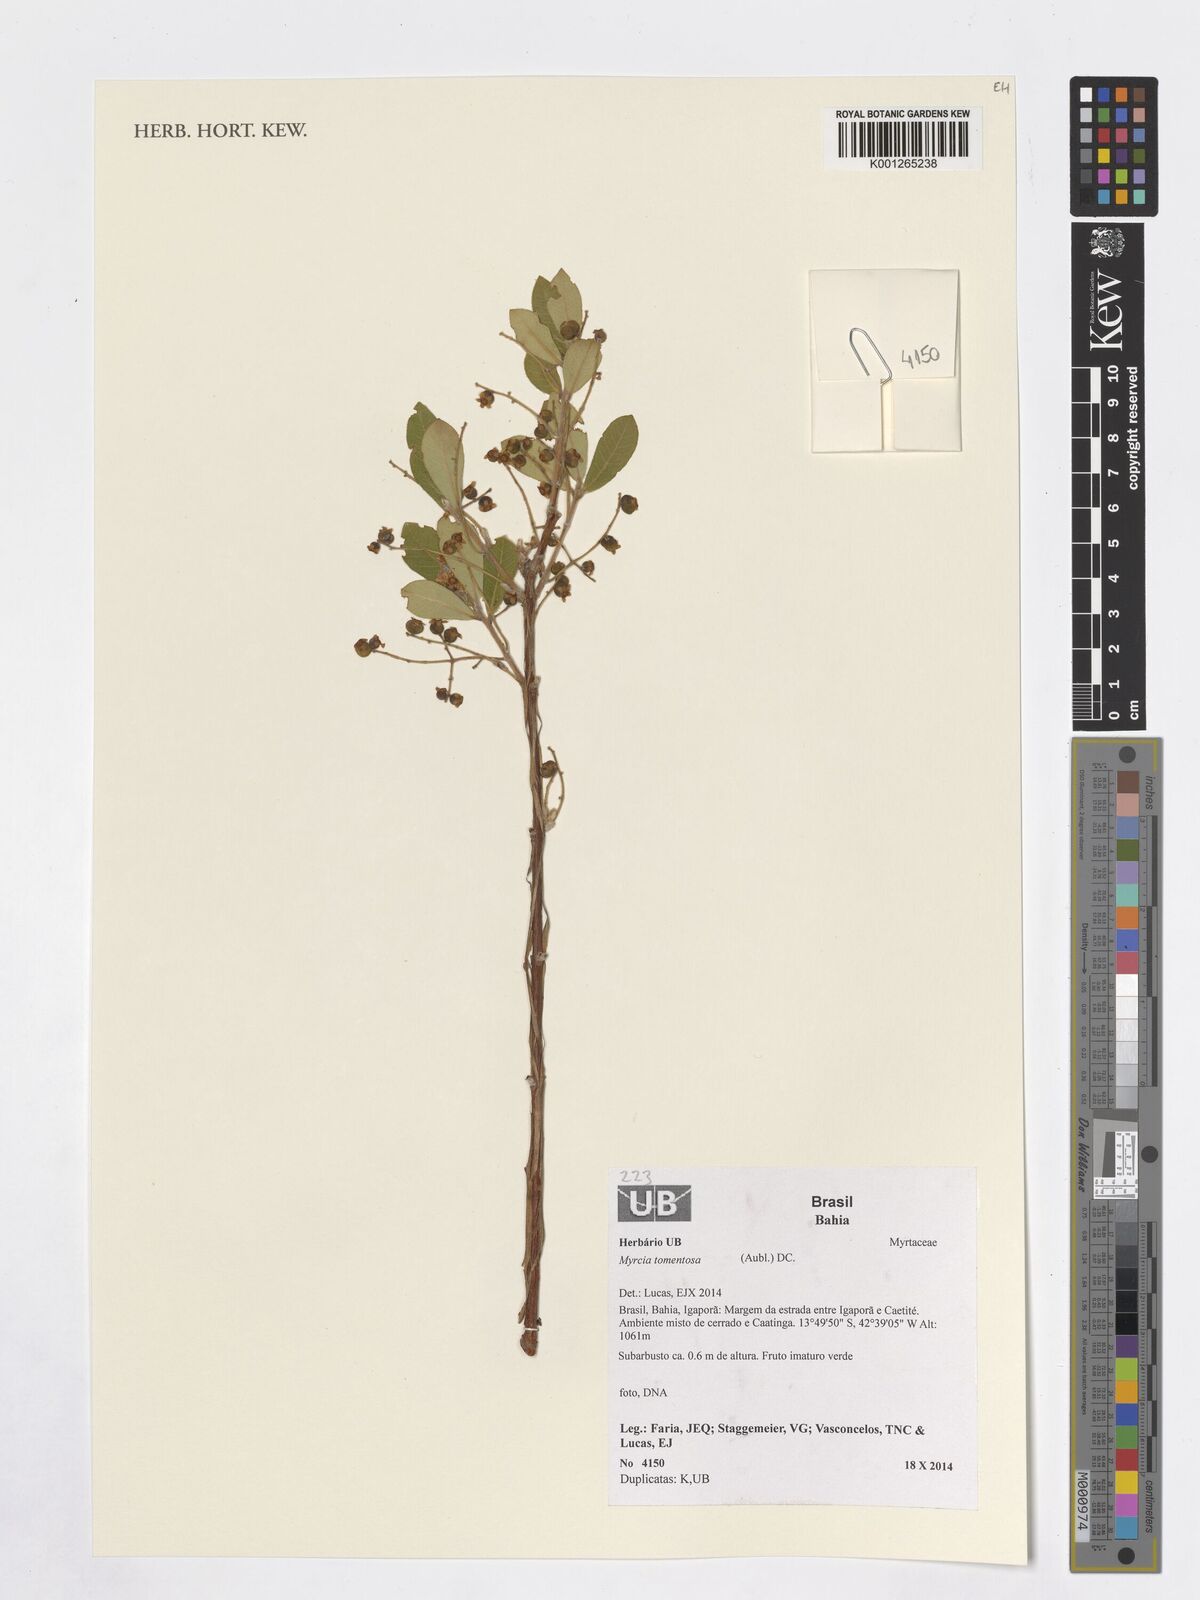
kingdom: Plantae
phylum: Tracheophyta
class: Magnoliopsida
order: Myrtales
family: Myrtaceae
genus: Myrcia
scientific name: Myrcia tomentosa
